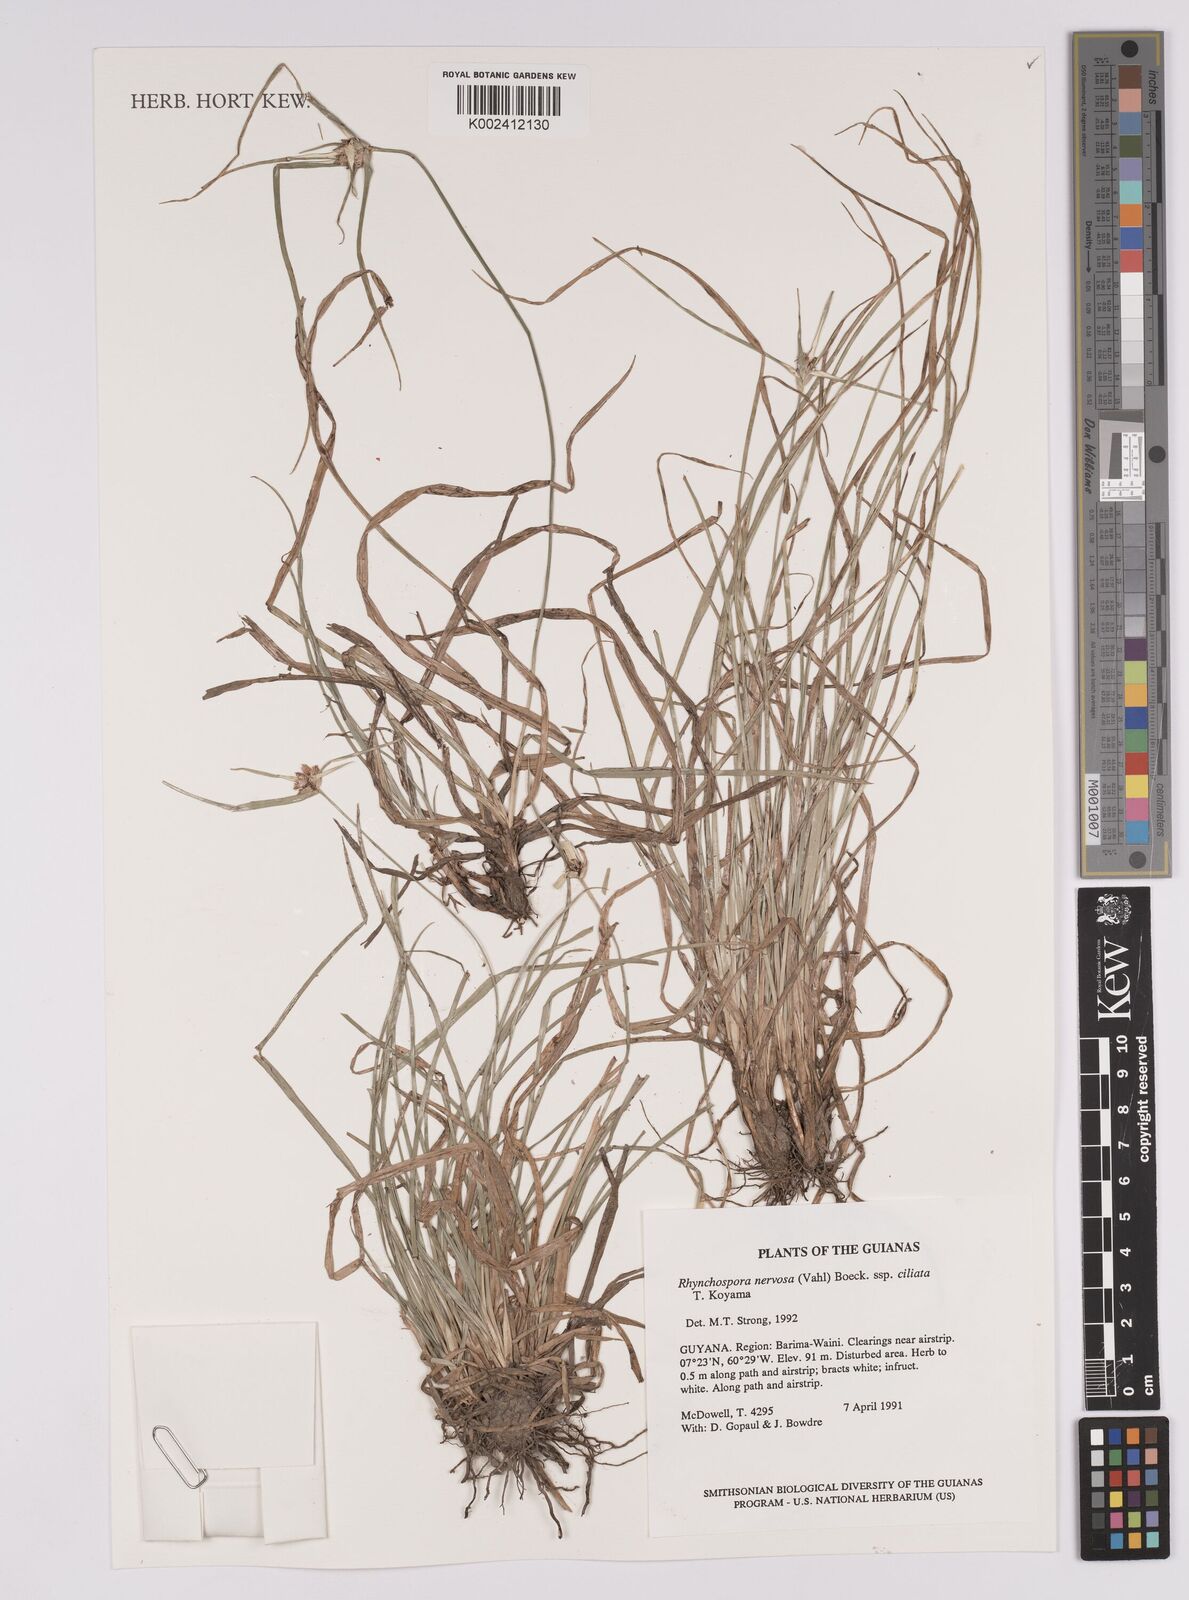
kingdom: Plantae
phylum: Tracheophyta
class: Liliopsida
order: Poales
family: Cyperaceae
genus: Rhynchospora
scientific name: Rhynchospora pura
